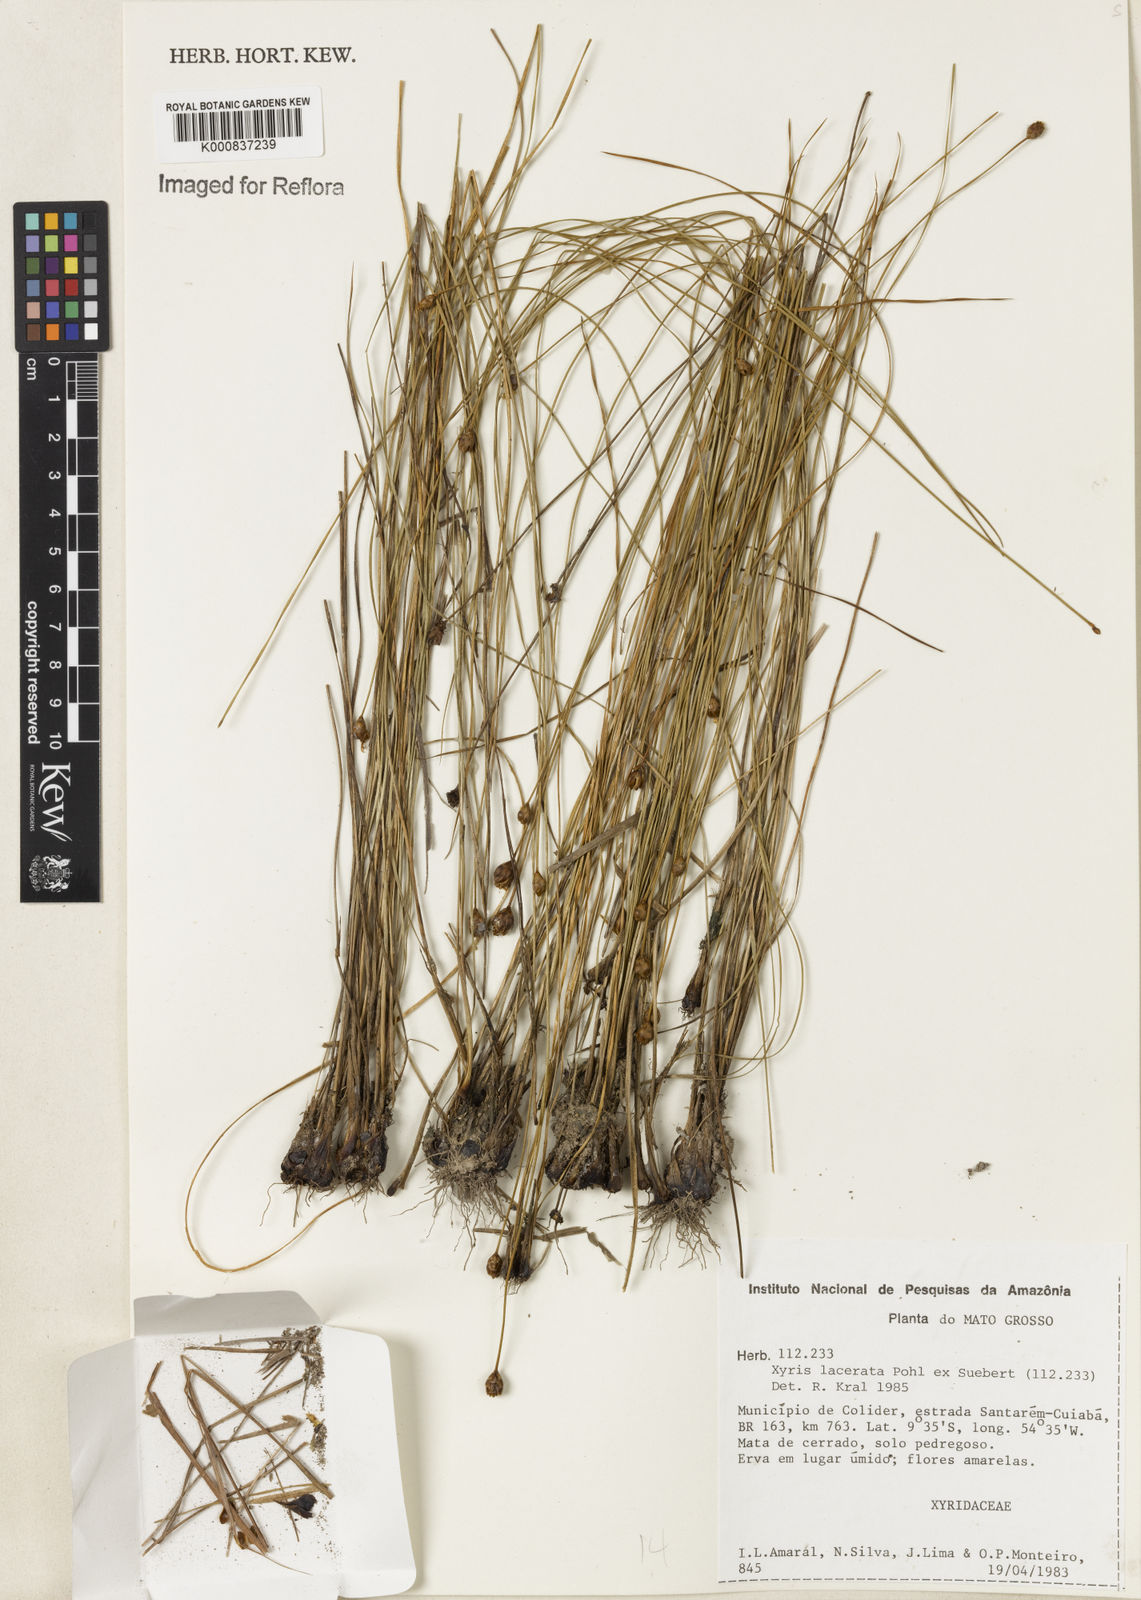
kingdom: Plantae
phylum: Tracheophyta
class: Liliopsida
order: Poales
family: Xyridaceae
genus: Xyris
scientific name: Xyris lacerata
